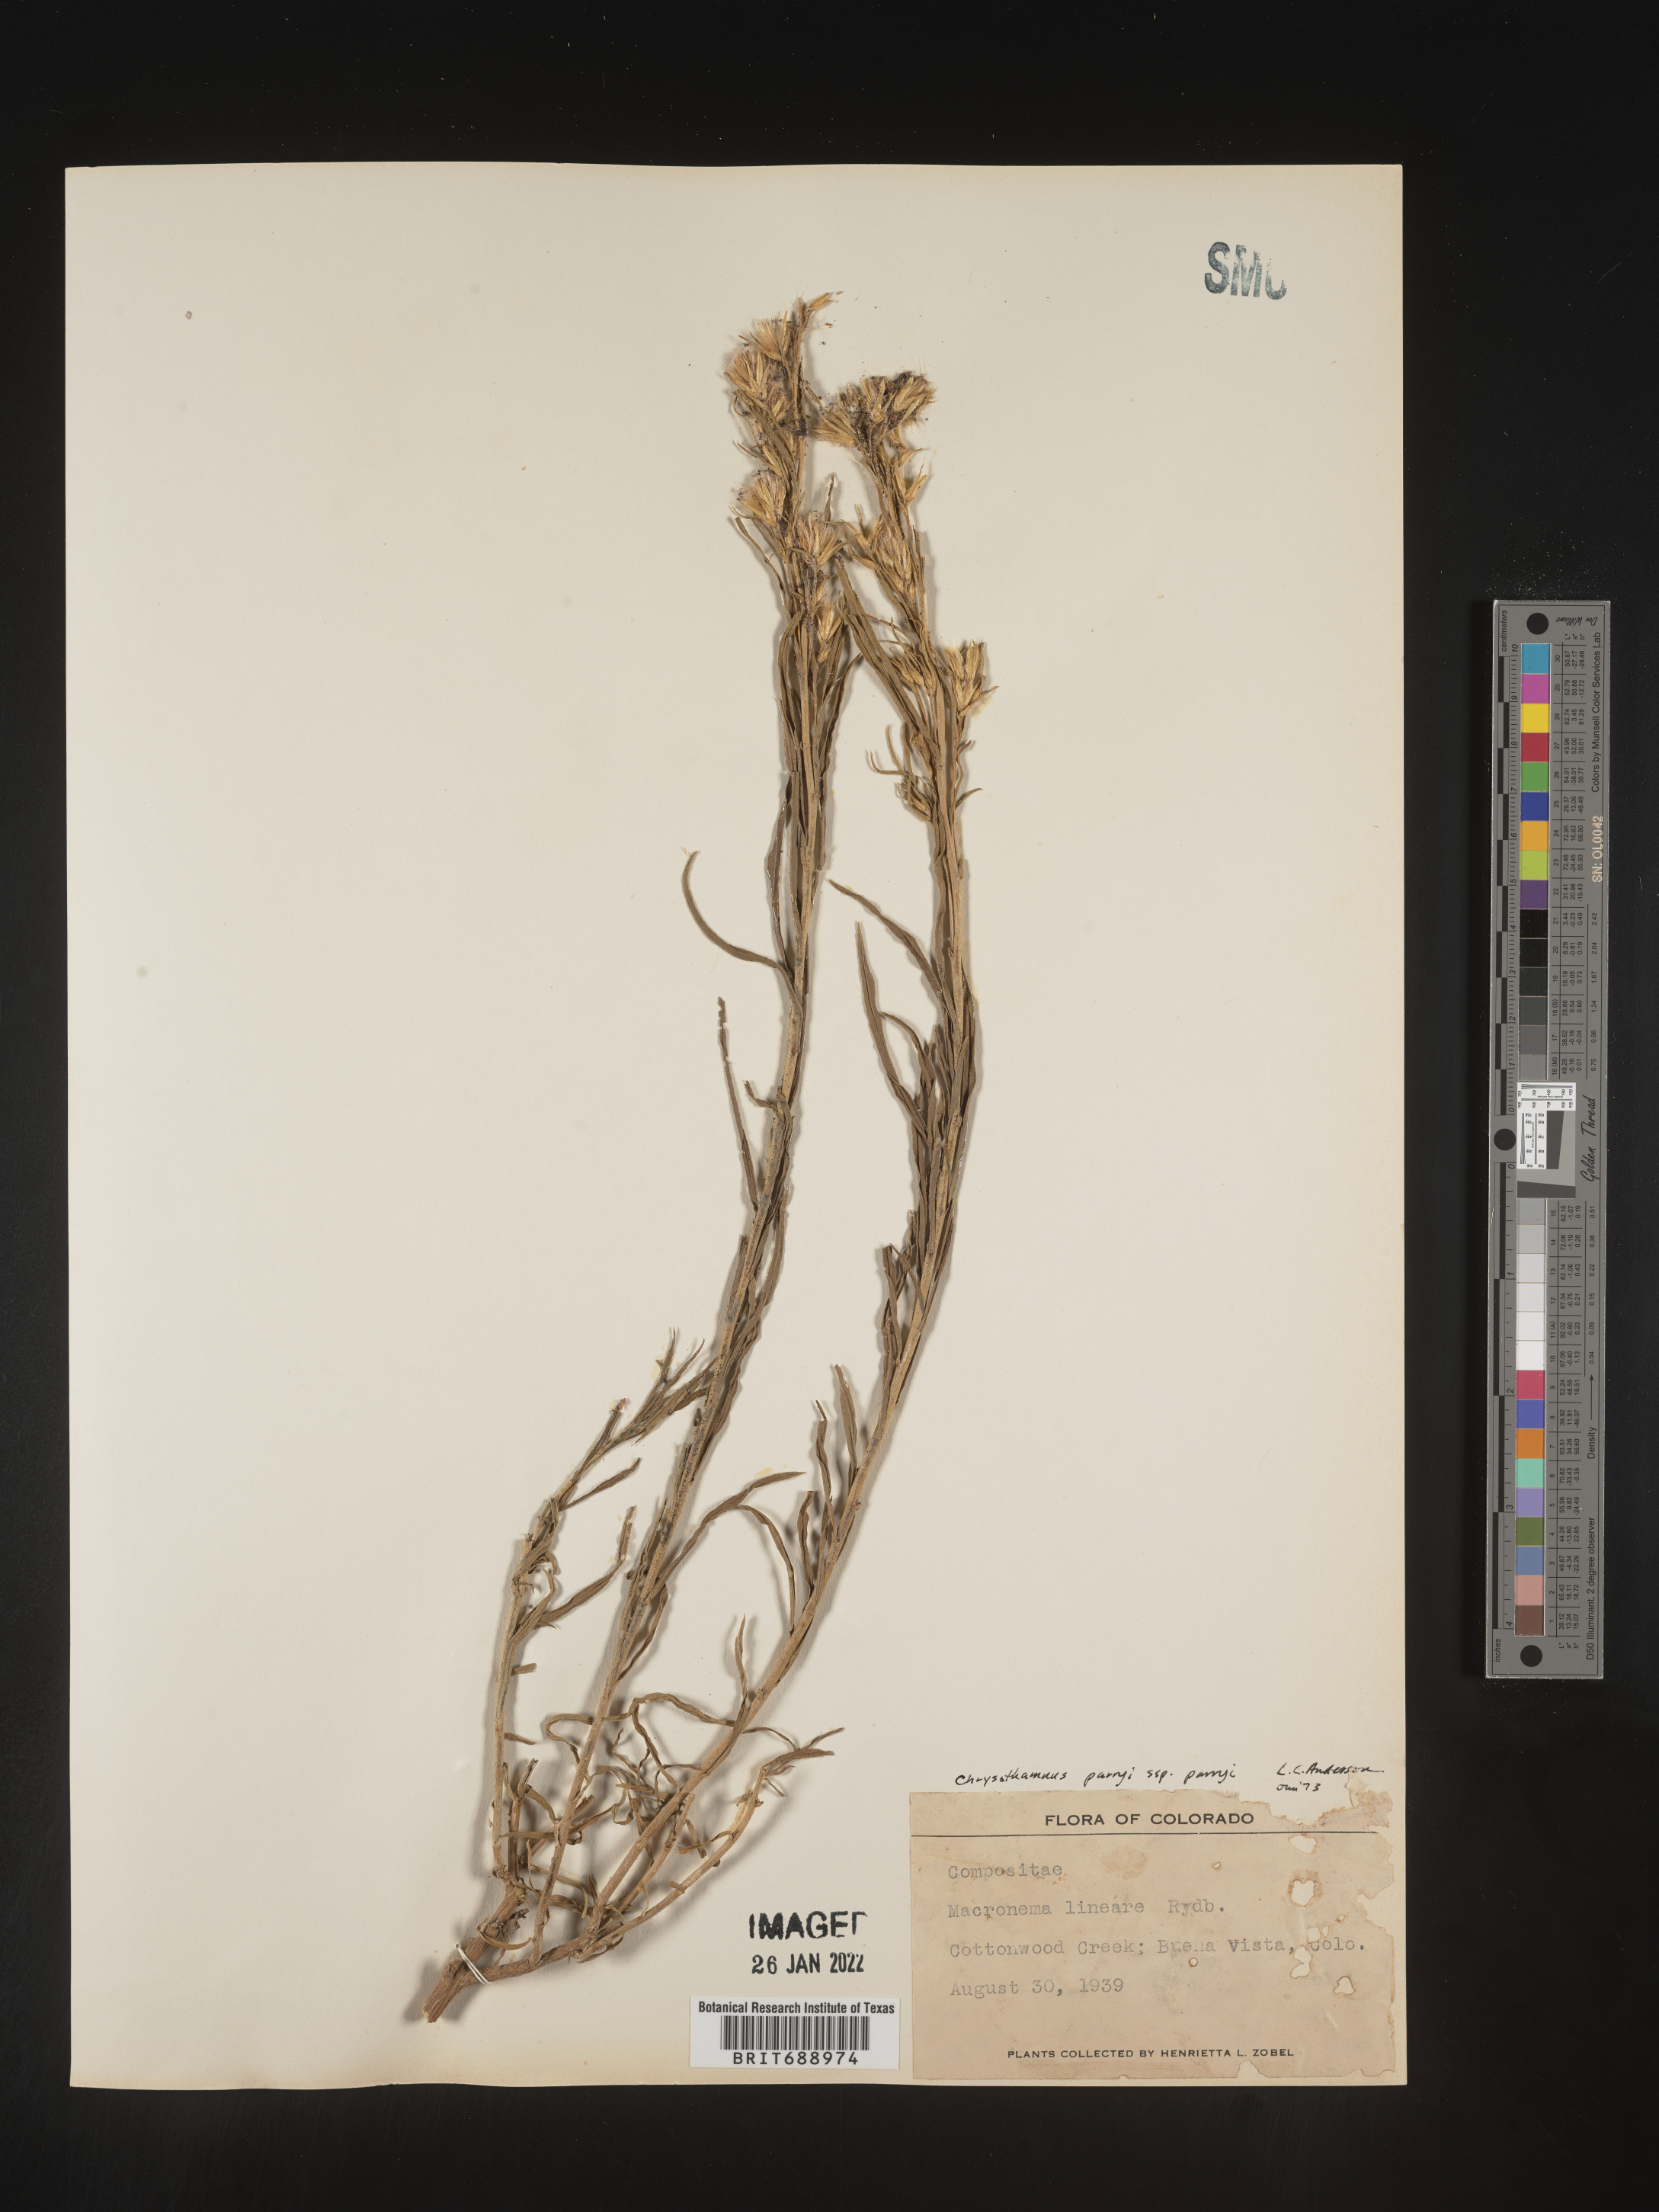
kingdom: Plantae
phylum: Tracheophyta
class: Magnoliopsida
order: Asterales
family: Asteraceae
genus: Ericameria
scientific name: Ericameria nauseosa
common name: Rubber rabbitbrush
